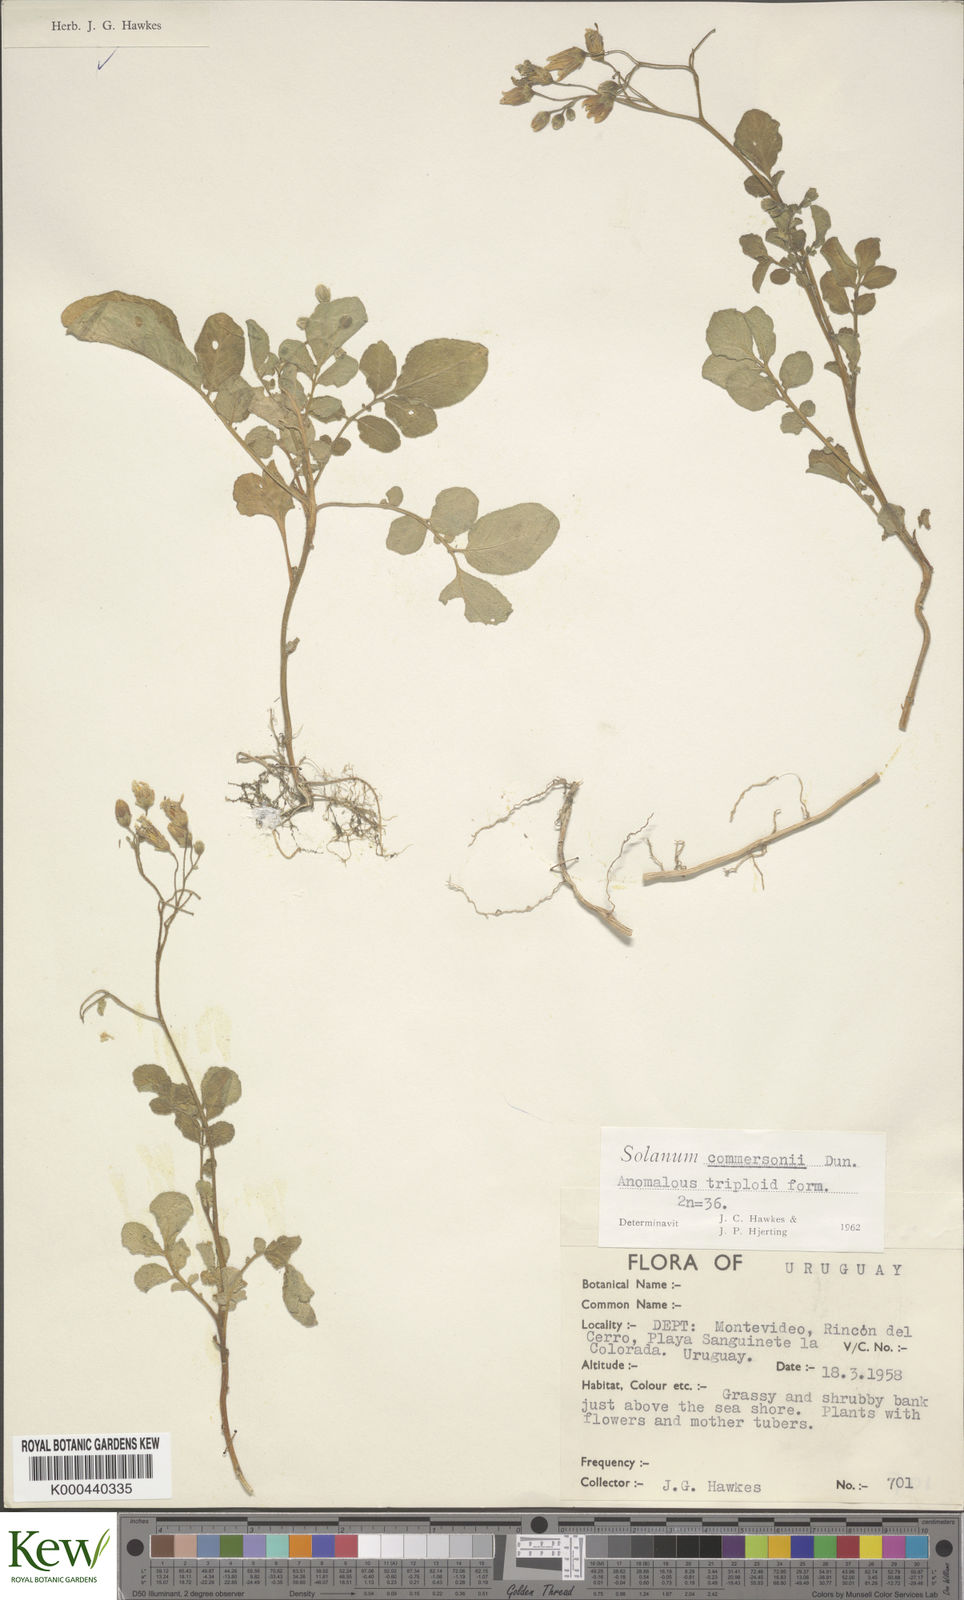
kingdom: Plantae
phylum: Tracheophyta
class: Magnoliopsida
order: Solanales
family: Solanaceae
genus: Solanum
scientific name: Solanum commersonii
